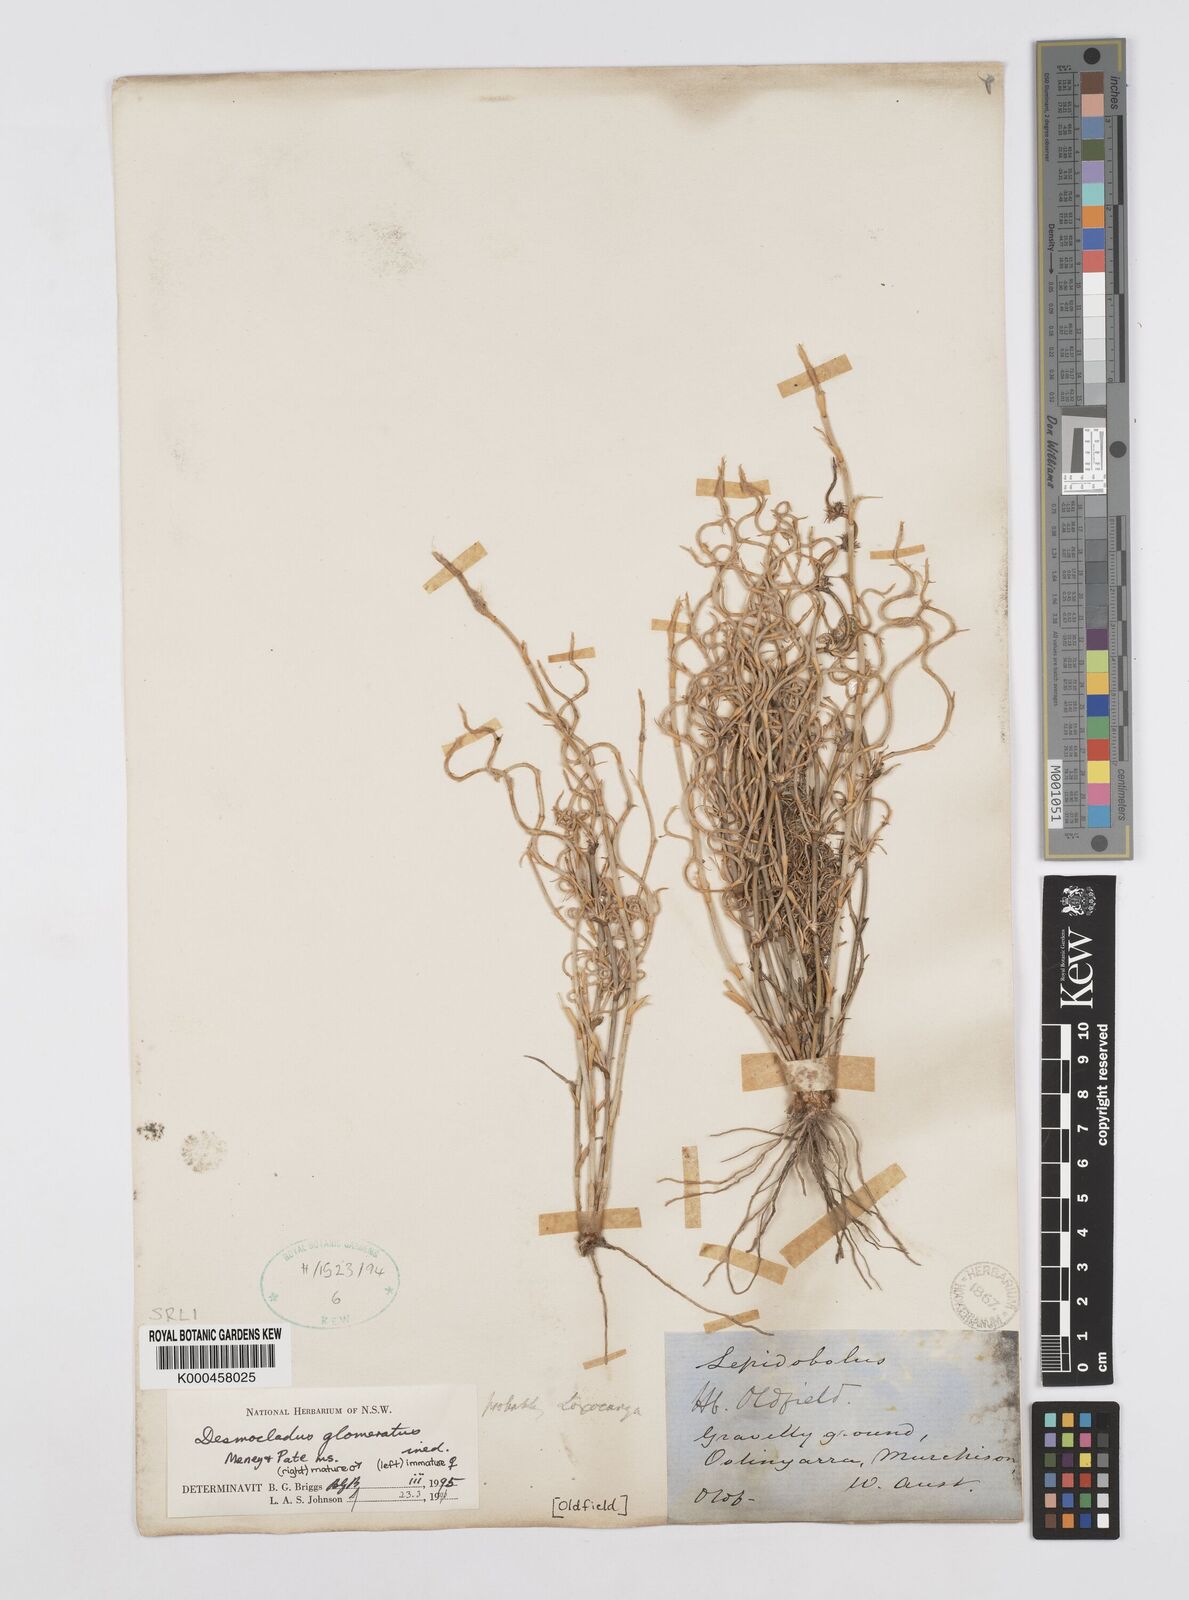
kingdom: Plantae
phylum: Tracheophyta
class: Liliopsida
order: Poales
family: Restionaceae
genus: Desmocladus
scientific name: Desmocladus
